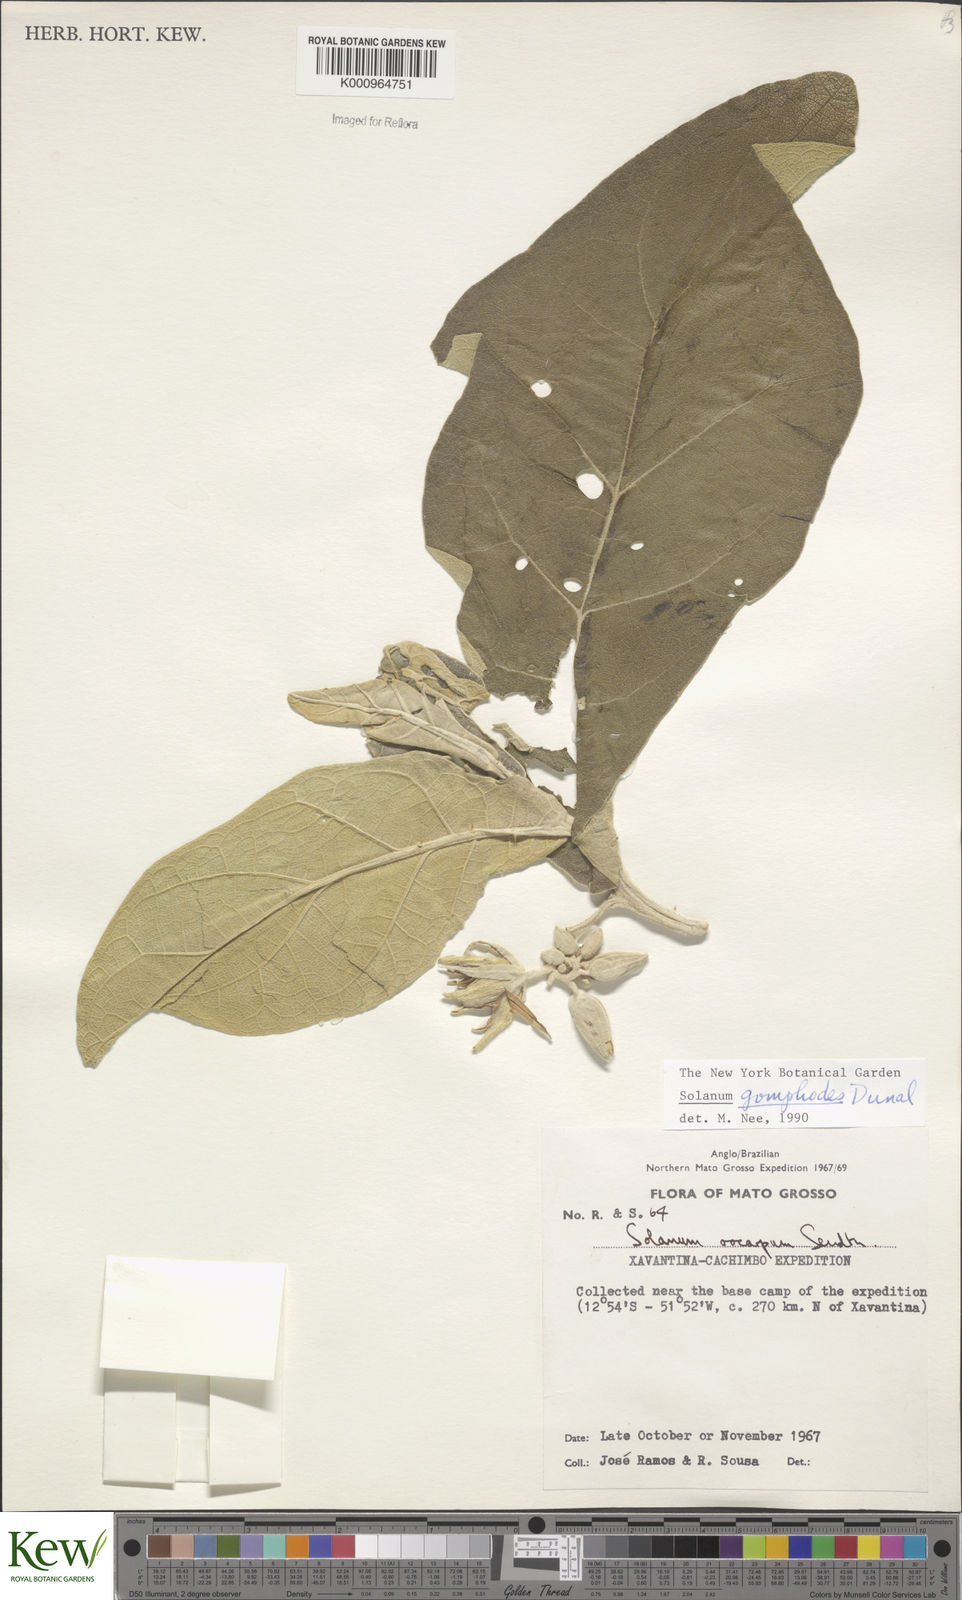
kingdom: Plantae
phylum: Tracheophyta
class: Magnoliopsida
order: Solanales
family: Solanaceae
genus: Solanum
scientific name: Solanum gomphodes
